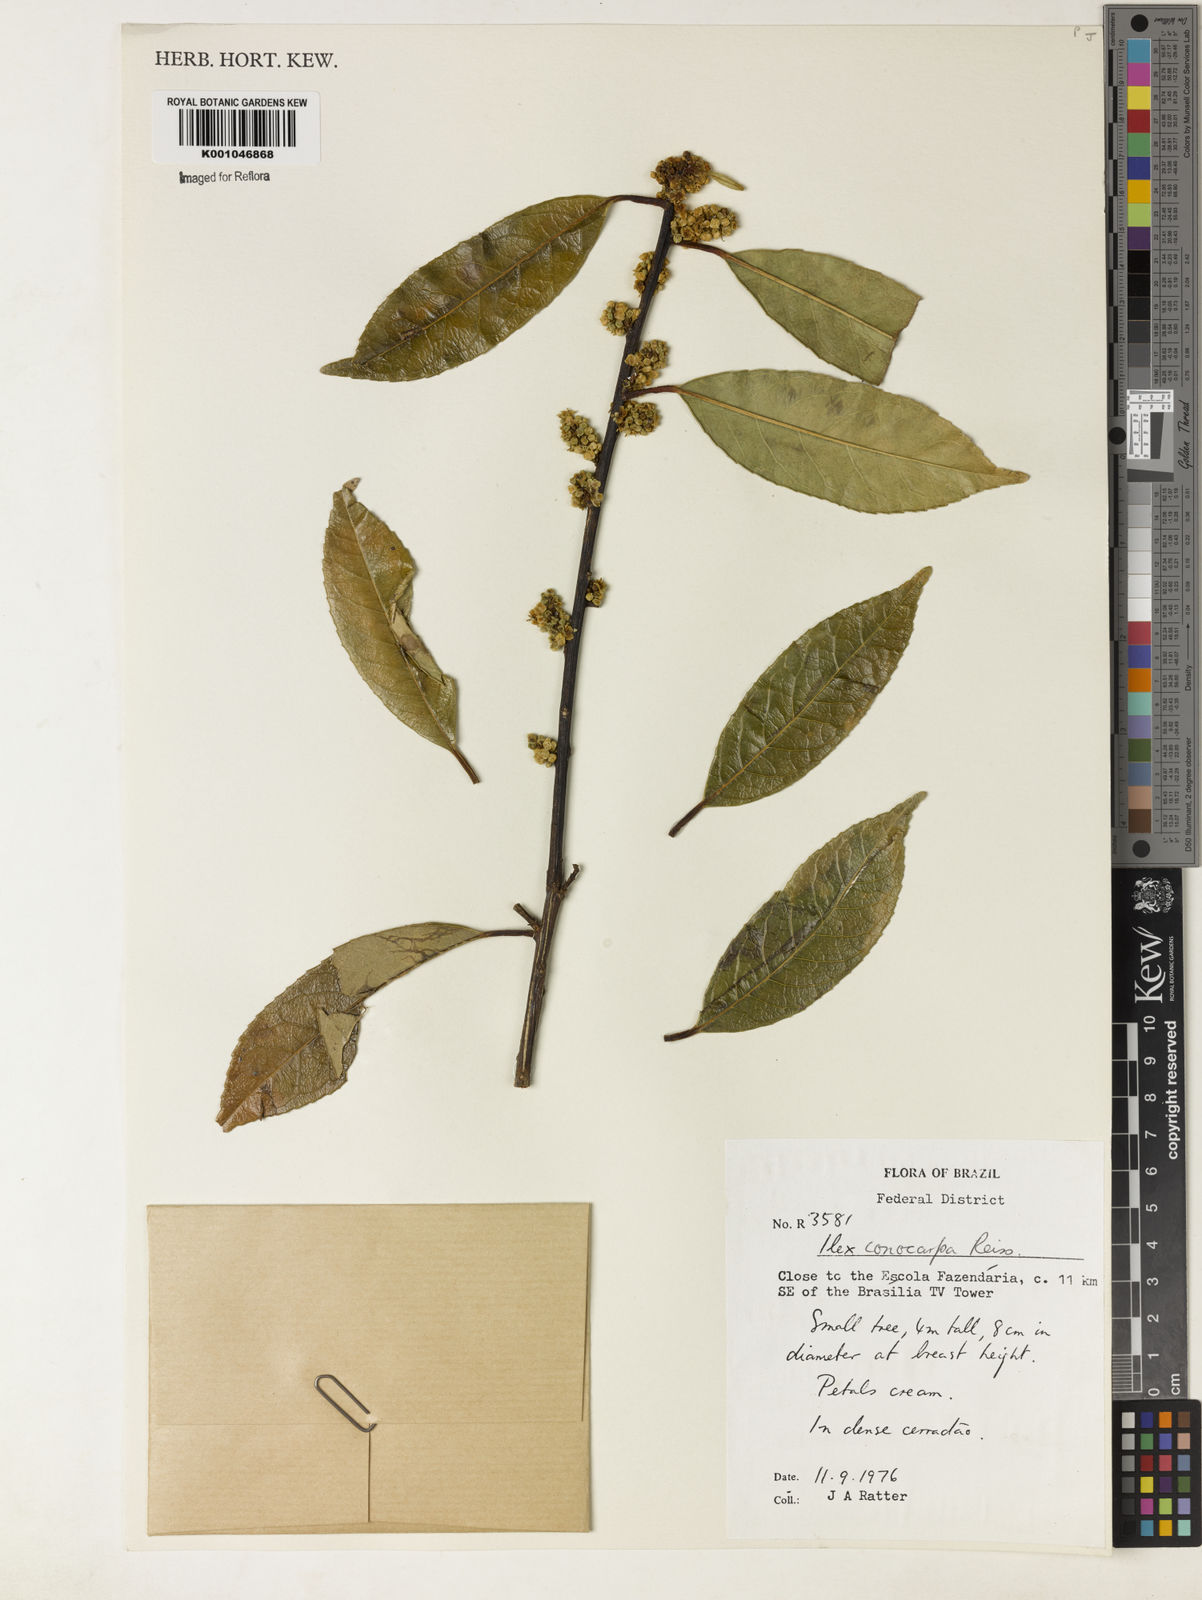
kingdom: Plantae
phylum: Tracheophyta
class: Magnoliopsida
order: Aquifoliales
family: Aquifoliaceae
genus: Ilex
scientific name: Ilex conocarpa
